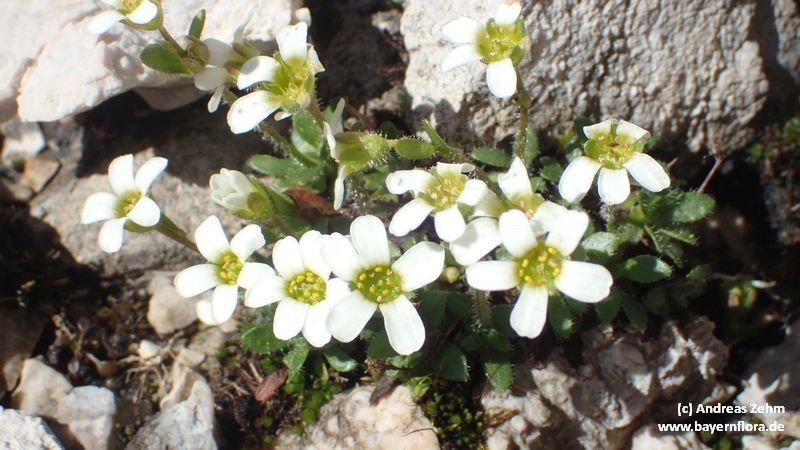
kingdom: Plantae
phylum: Tracheophyta
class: Magnoliopsida
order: Saxifragales
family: Saxifragaceae
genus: Saxifraga
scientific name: Saxifraga androsacea
